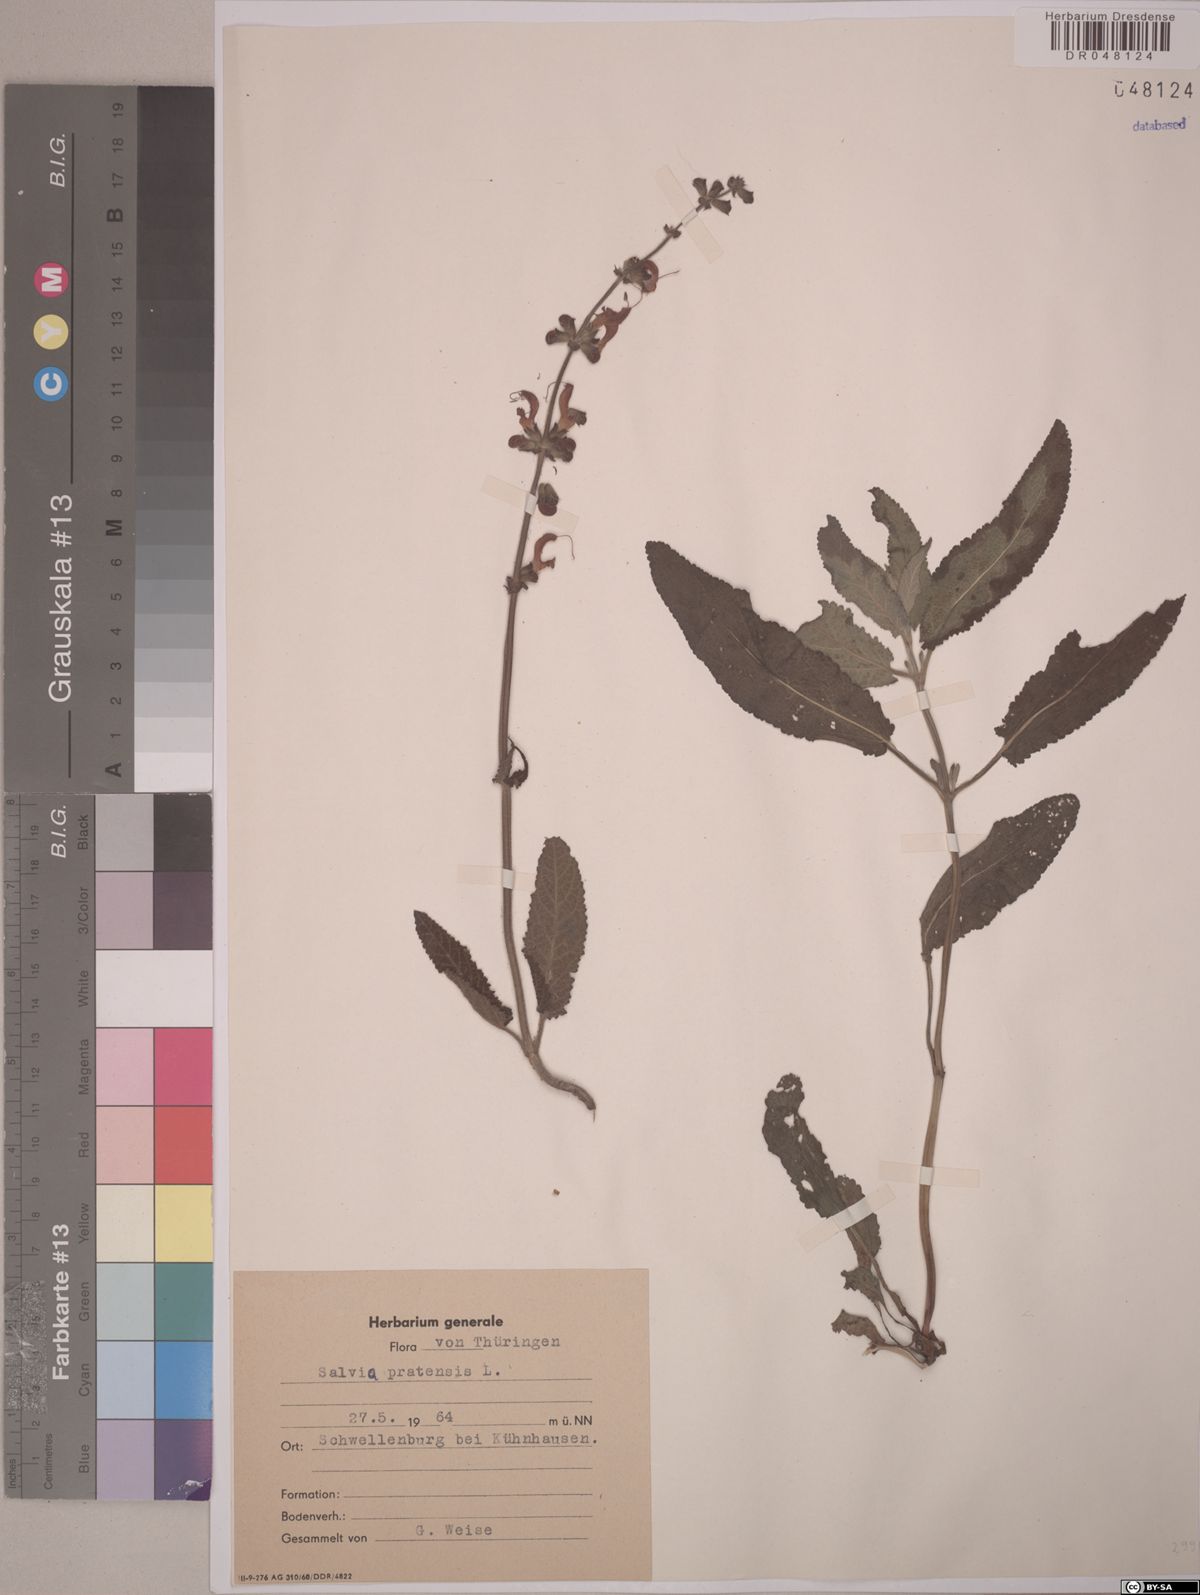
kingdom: Plantae
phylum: Tracheophyta
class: Magnoliopsida
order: Lamiales
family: Lamiaceae
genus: Salvia
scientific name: Salvia pratensis
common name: Meadow sage
